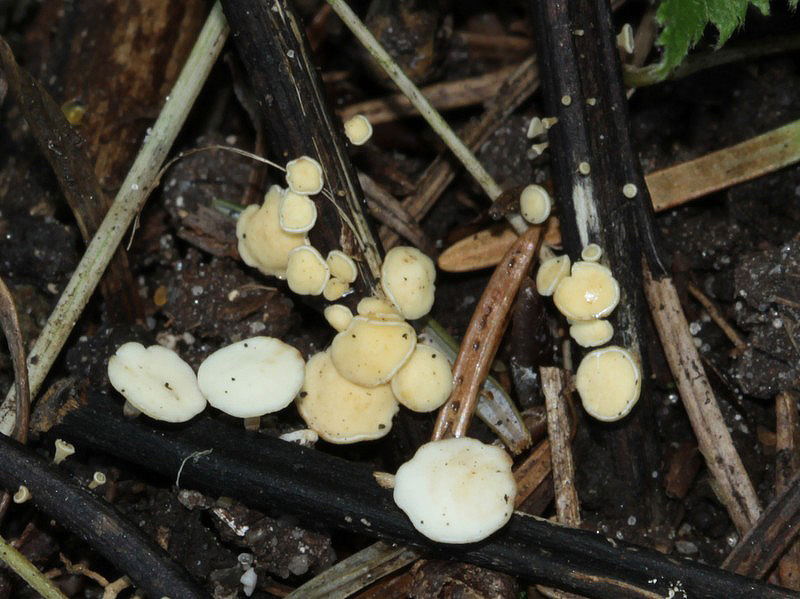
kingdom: Fungi
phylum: Ascomycota
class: Leotiomycetes
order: Helotiales
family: Helotiaceae
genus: Hymenoscyphus
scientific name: Hymenoscyphus fraxineus
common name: asketoptørre-stilkskive
